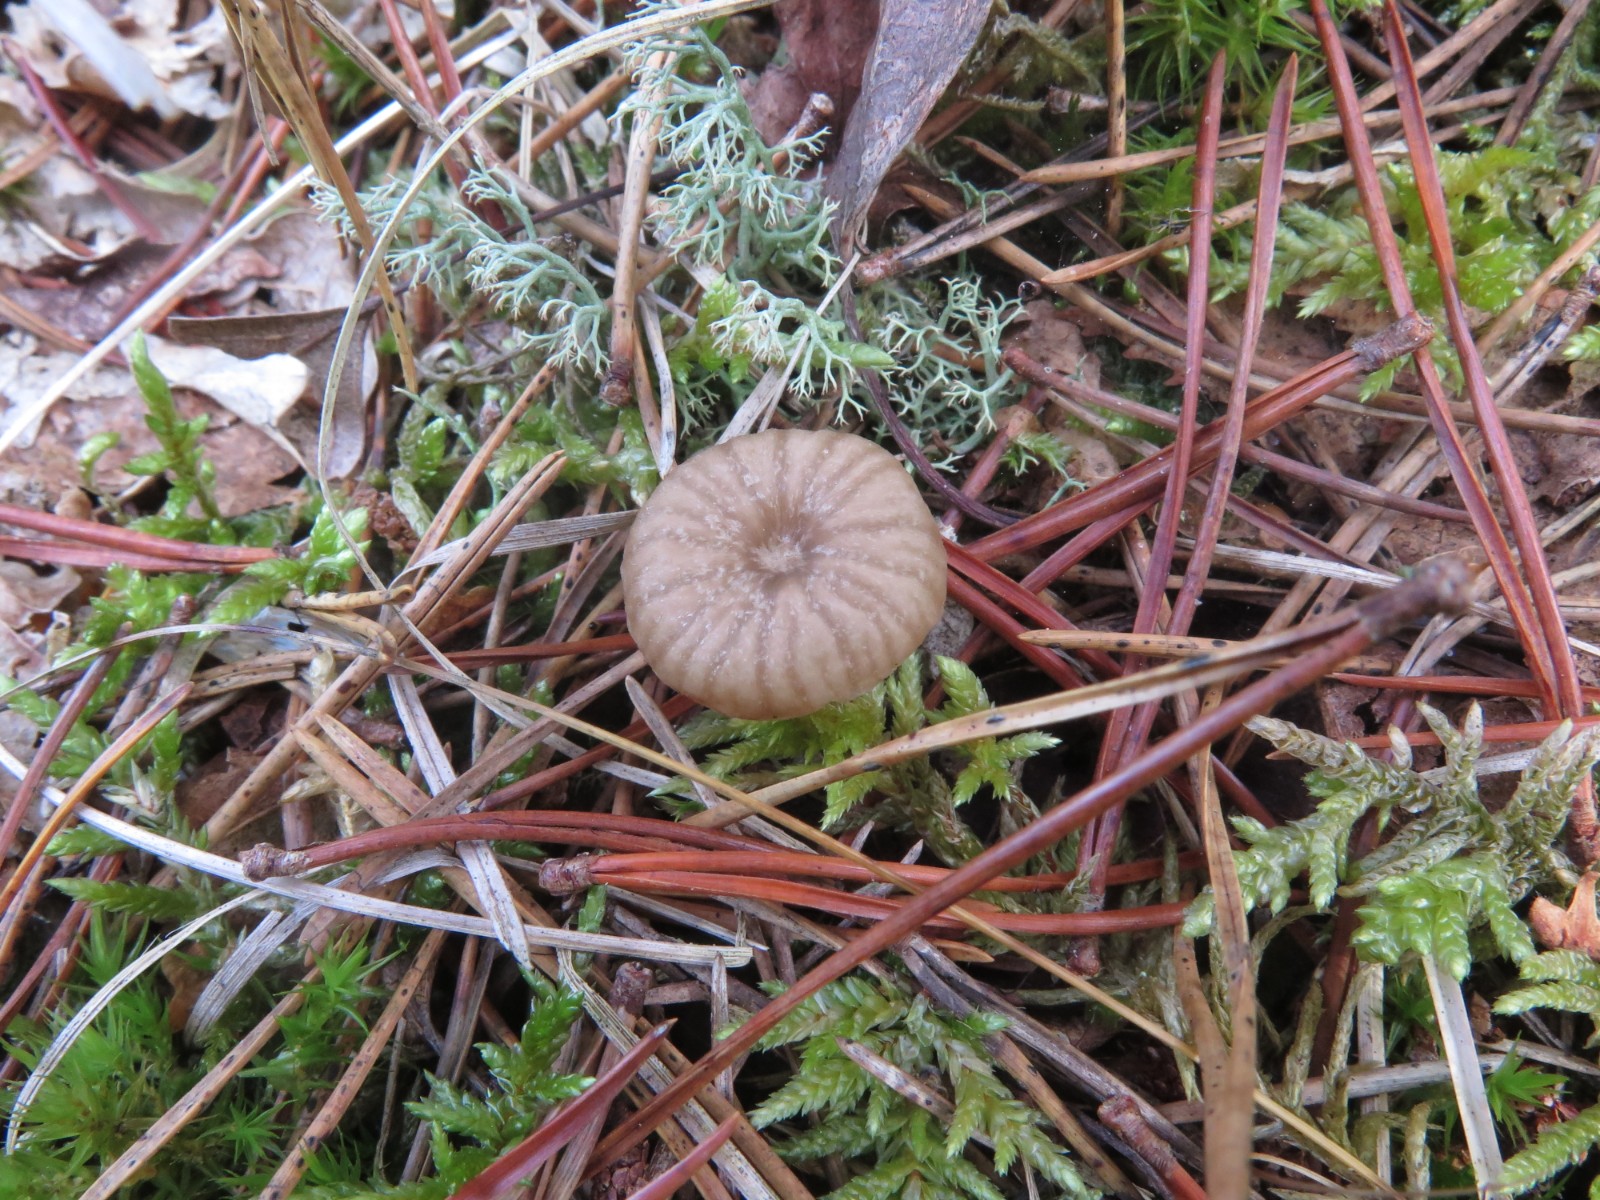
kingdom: Fungi
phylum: Basidiomycota
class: Agaricomycetes
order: Agaricales
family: Entolomataceae
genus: Entoloma
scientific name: Entoloma rhodocylix
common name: fjernbladet rødblad
